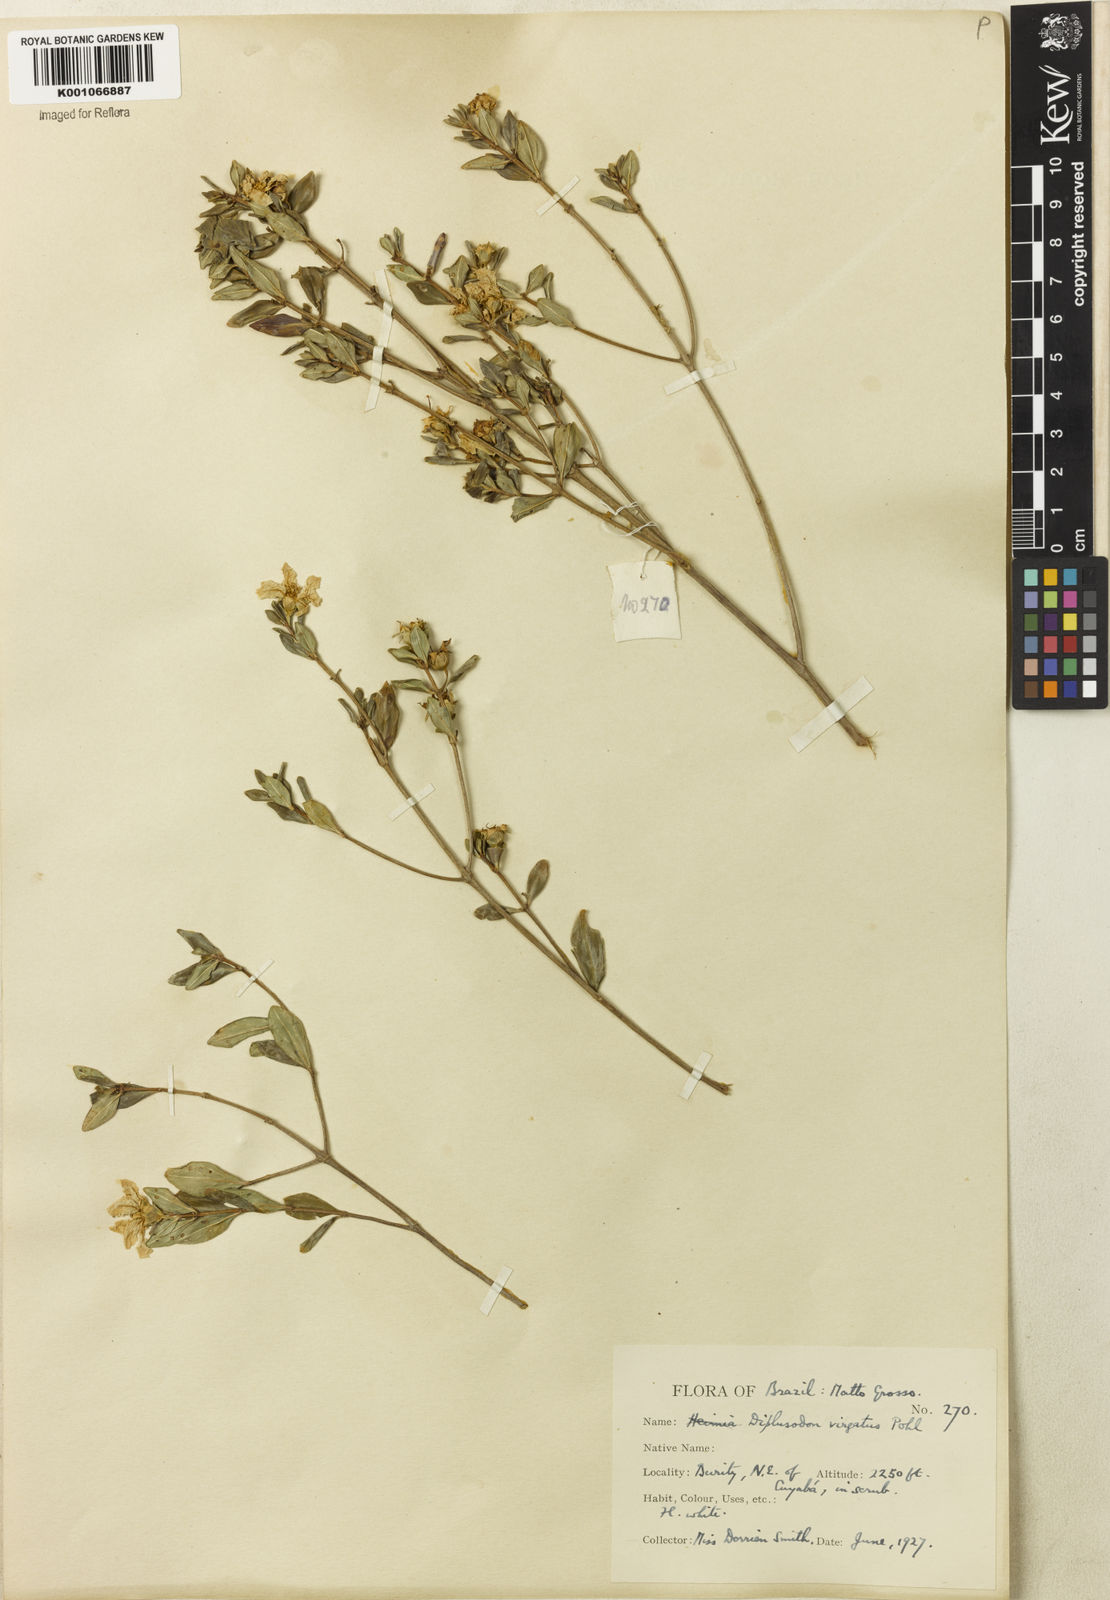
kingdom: Plantae
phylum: Tracheophyta
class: Magnoliopsida
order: Myrtales
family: Lythraceae
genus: Diplusodon
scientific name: Diplusodon virgatus
